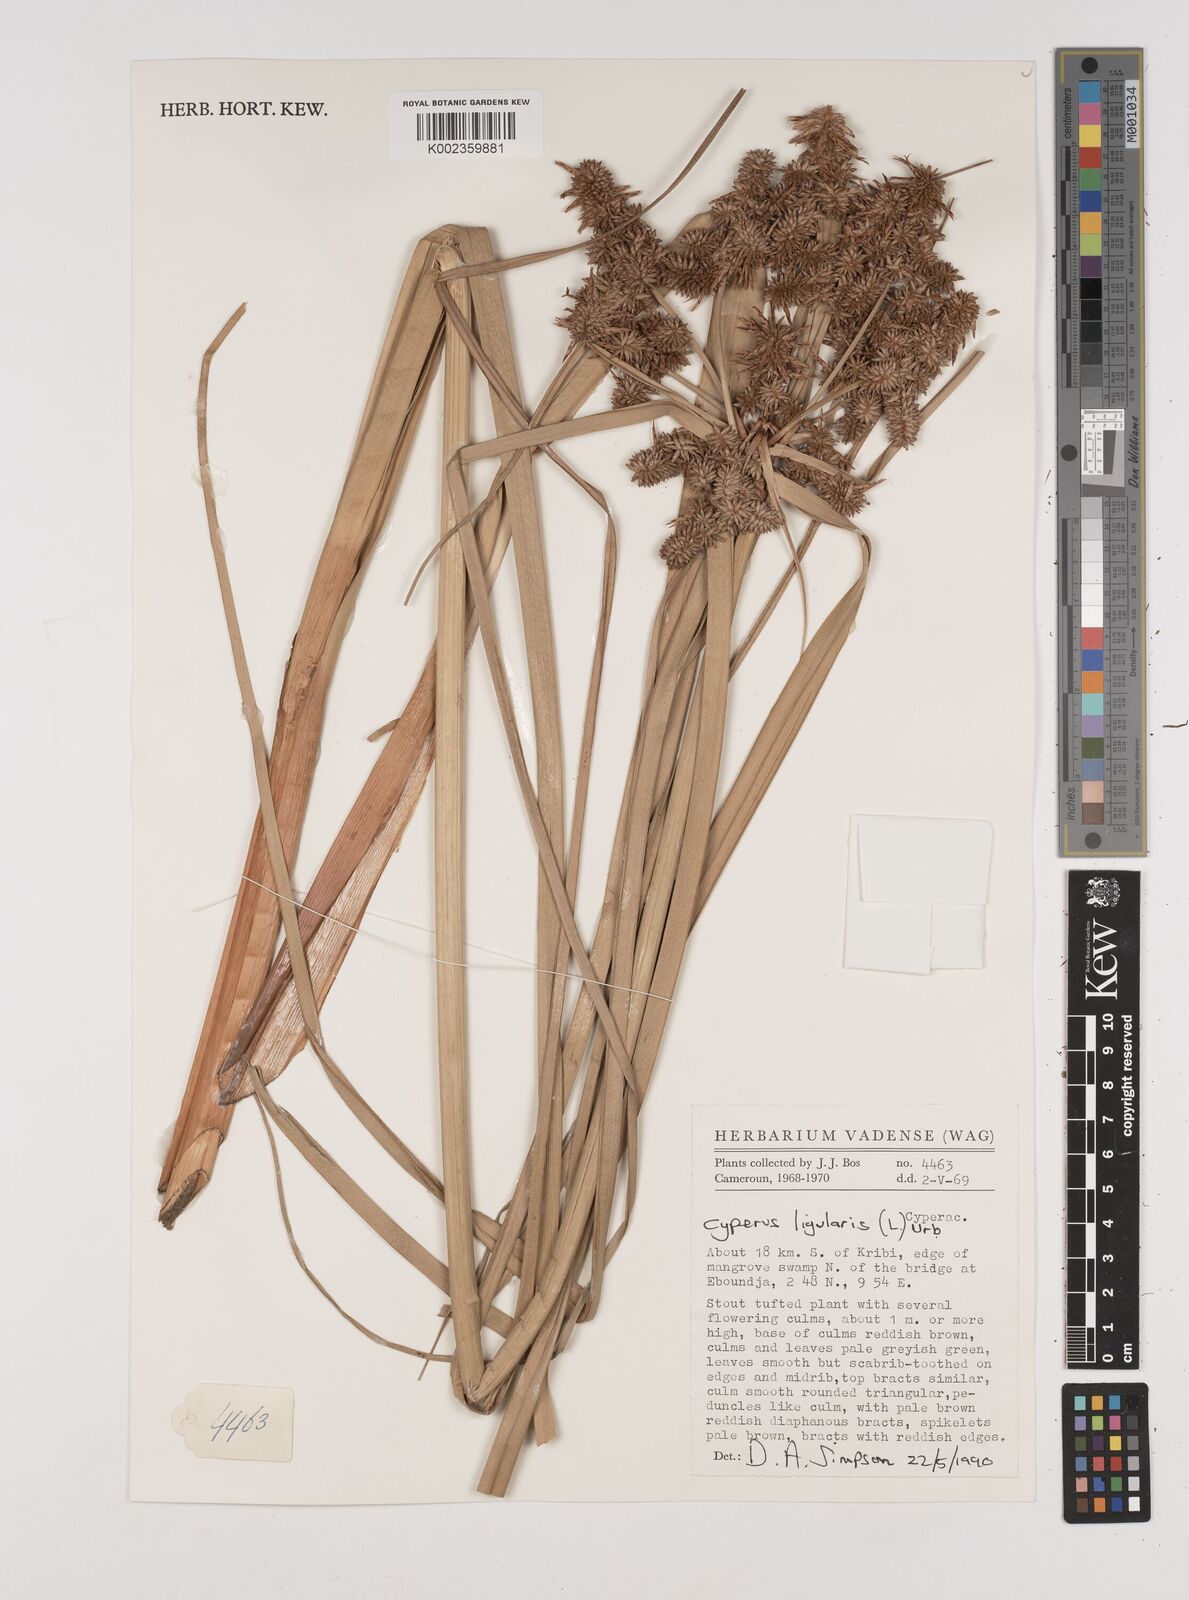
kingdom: Plantae
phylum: Tracheophyta
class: Liliopsida
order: Poales
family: Cyperaceae
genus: Cyperus
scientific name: Cyperus ligularis
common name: Swamp flat sedge
